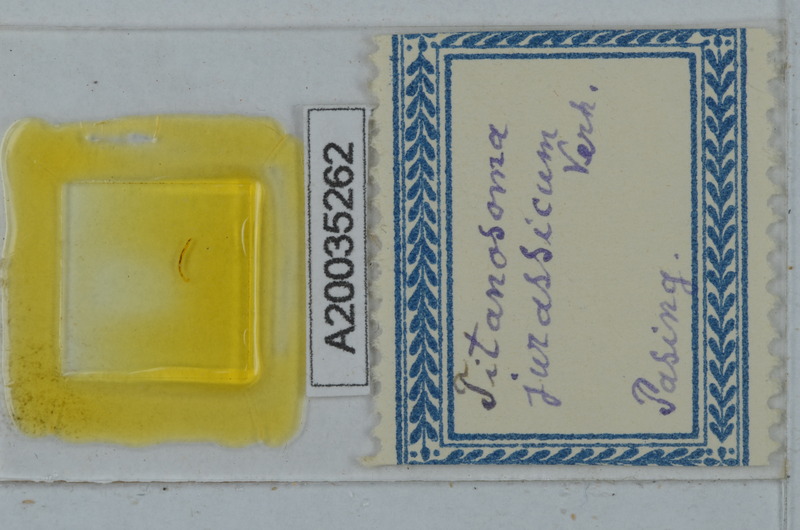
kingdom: Animalia
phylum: Arthropoda
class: Diplopoda
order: Polydesmida
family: Macrosternodesmidae
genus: Macrosternodesmus
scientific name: Macrosternodesmus palicola
